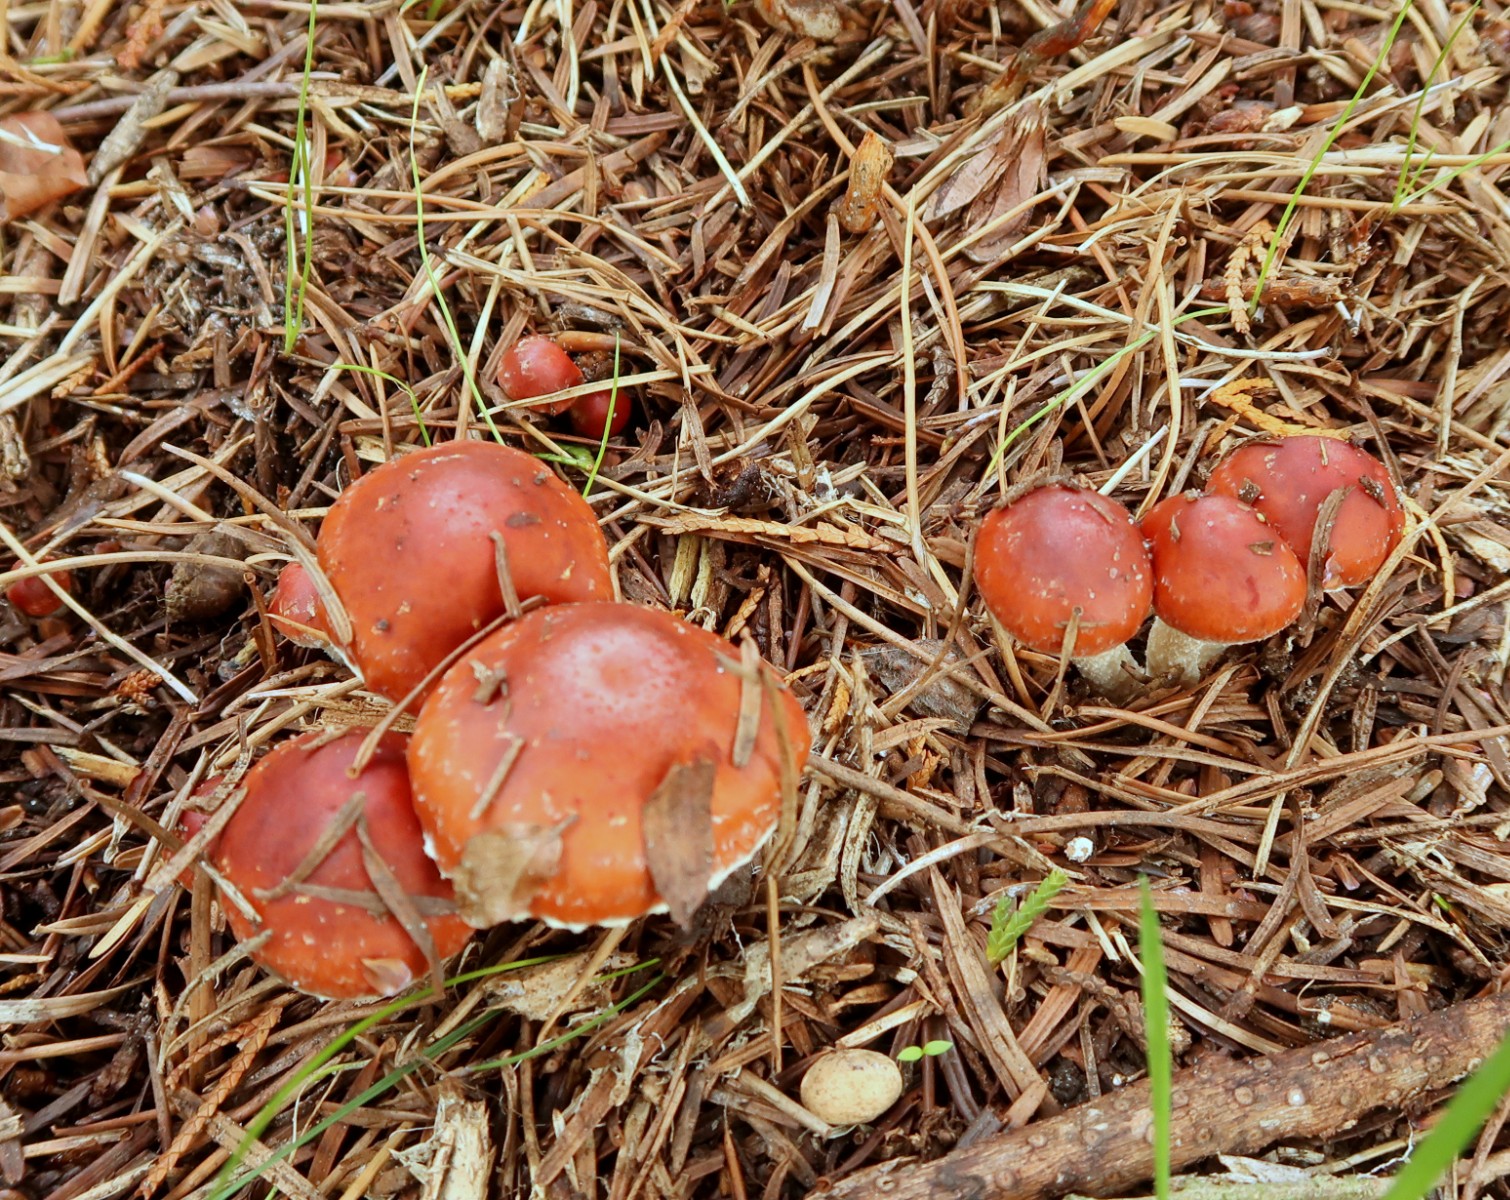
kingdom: Fungi
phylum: Basidiomycota
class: Agaricomycetes
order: Agaricales
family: Strophariaceae
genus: Leratiomyces
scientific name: Leratiomyces ceres
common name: orange bredblad
